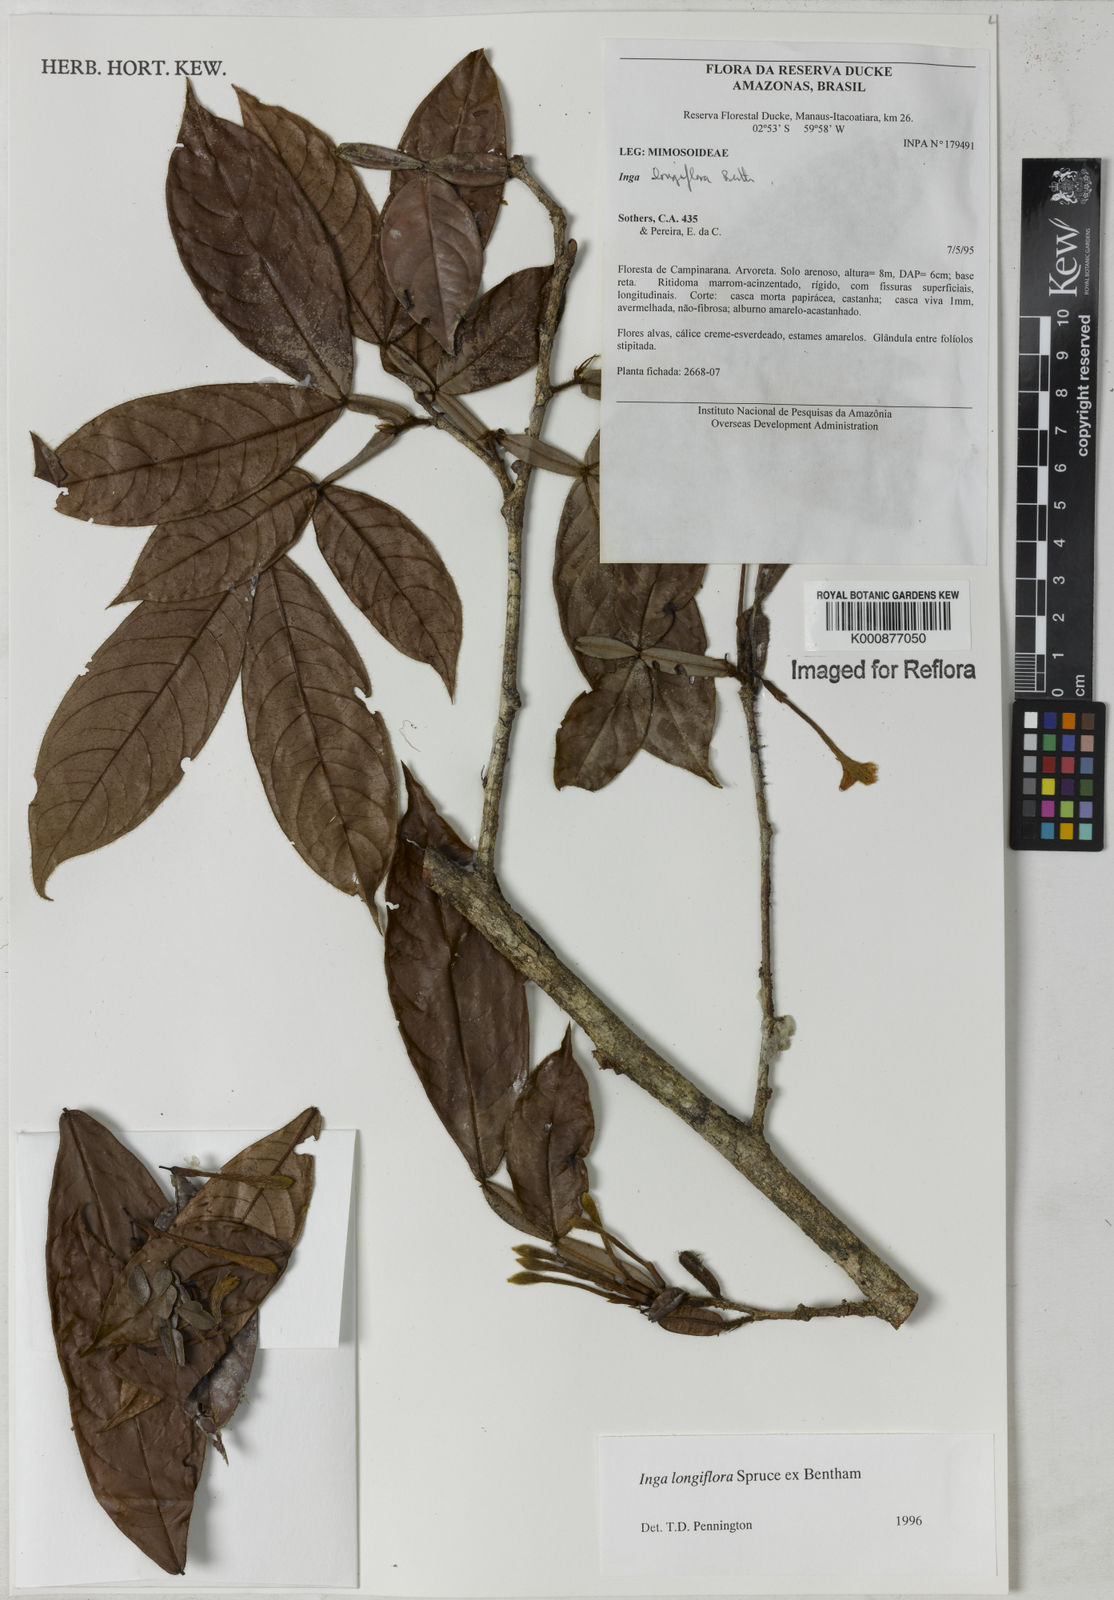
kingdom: Plantae
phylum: Tracheophyta
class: Magnoliopsida
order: Fabales
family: Fabaceae
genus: Inga
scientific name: Inga longiflora
